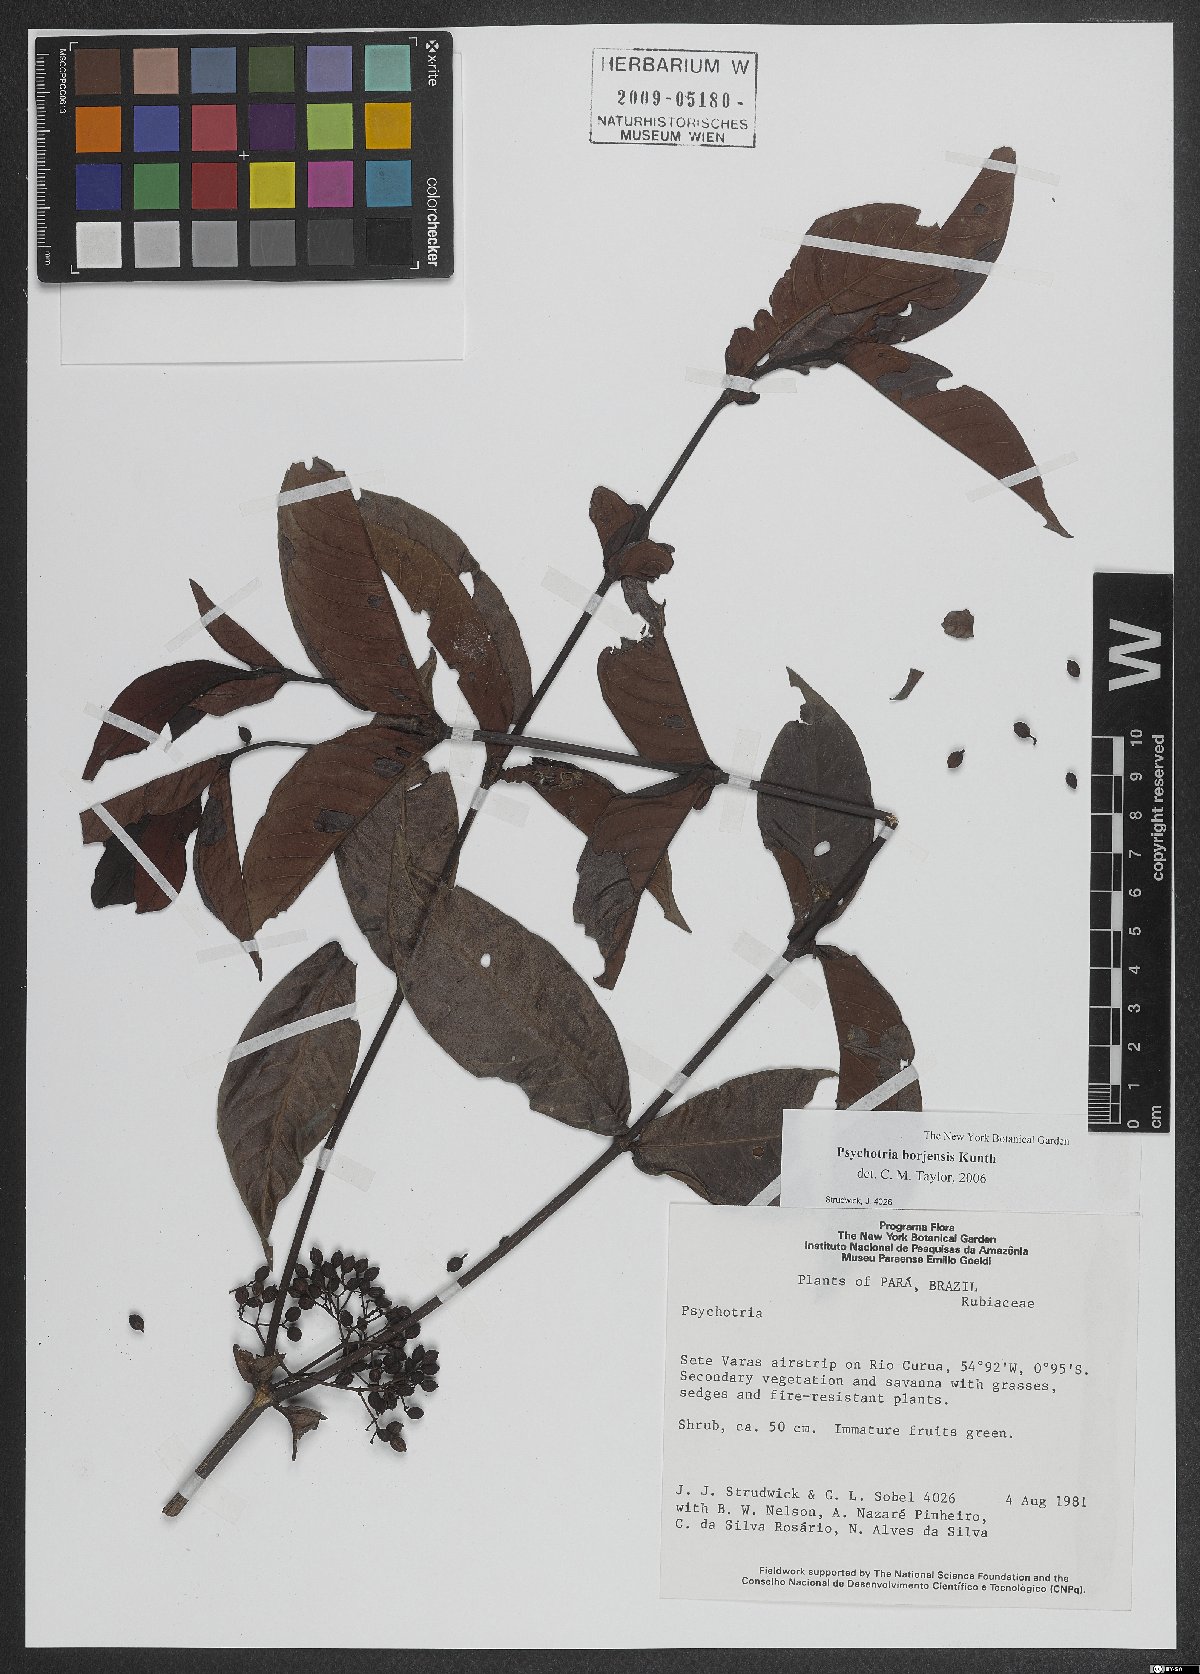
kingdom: Plantae
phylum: Tracheophyta
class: Magnoliopsida
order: Gentianales
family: Rubiaceae
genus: Psychotria
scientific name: Psychotria borjensis
